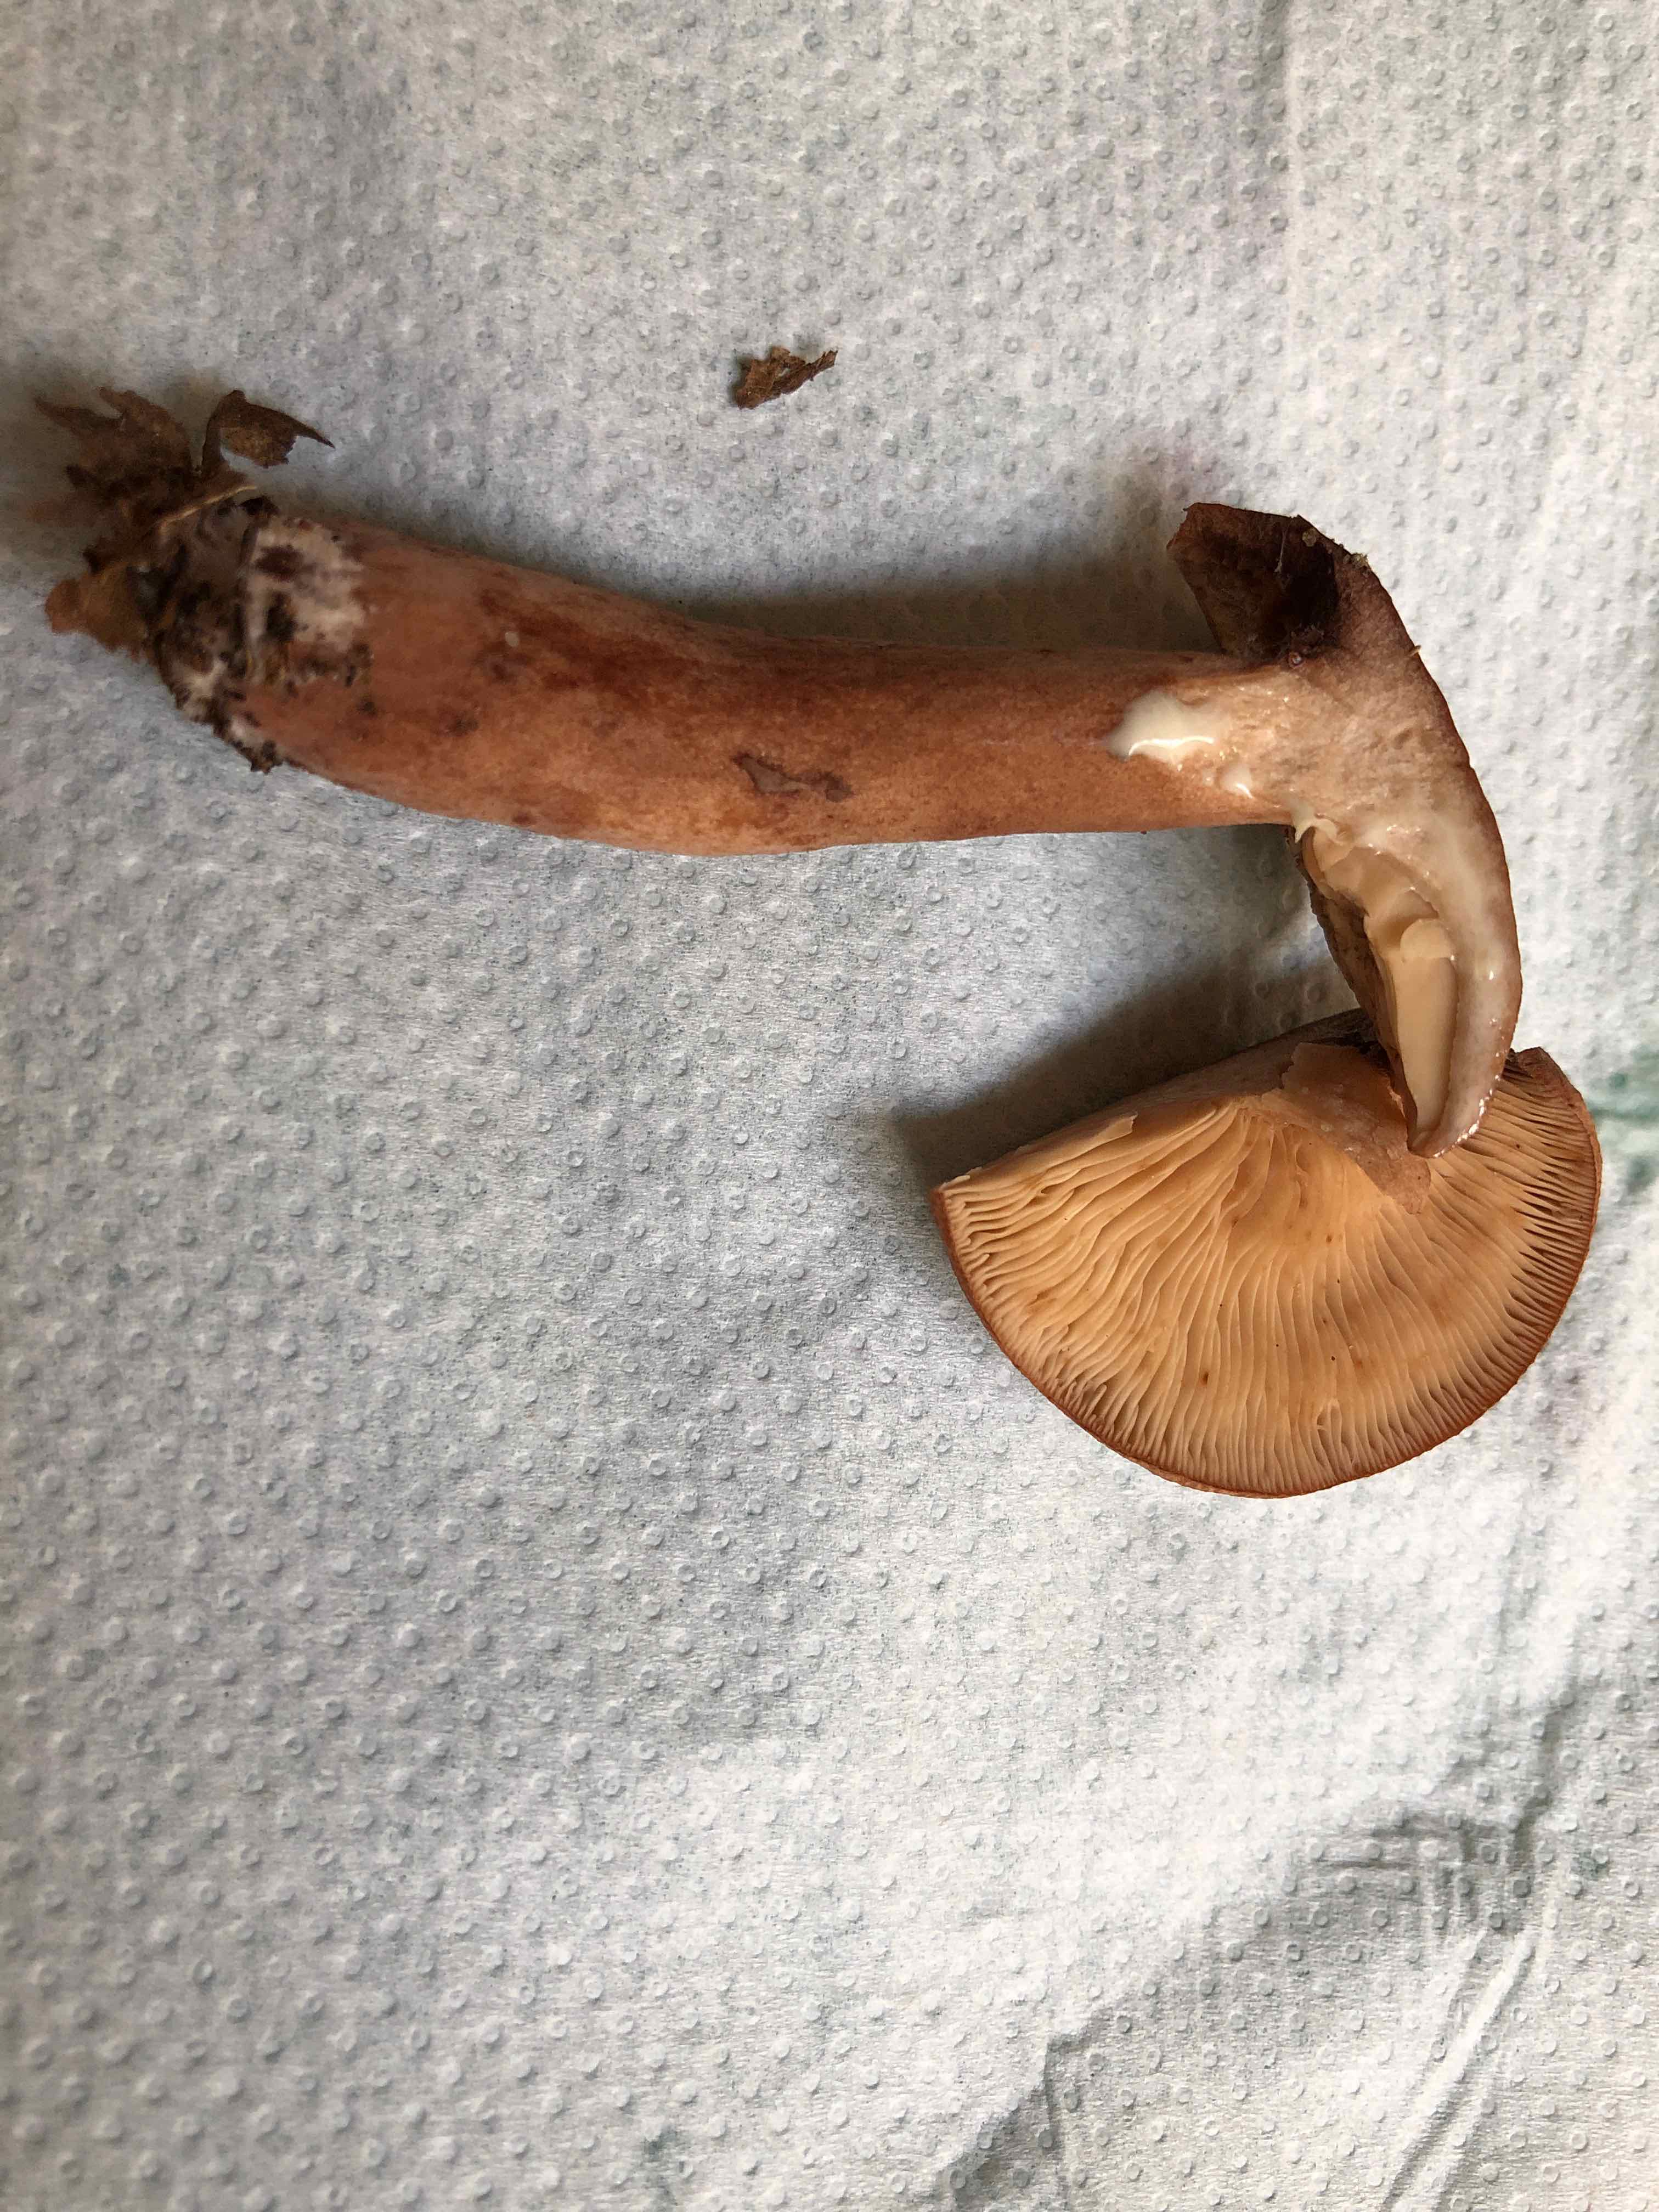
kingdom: Fungi
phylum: Basidiomycota
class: Agaricomycetes
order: Russulales
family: Russulaceae
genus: Lactarius
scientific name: Lactarius quietus
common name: ege-mælkehat
